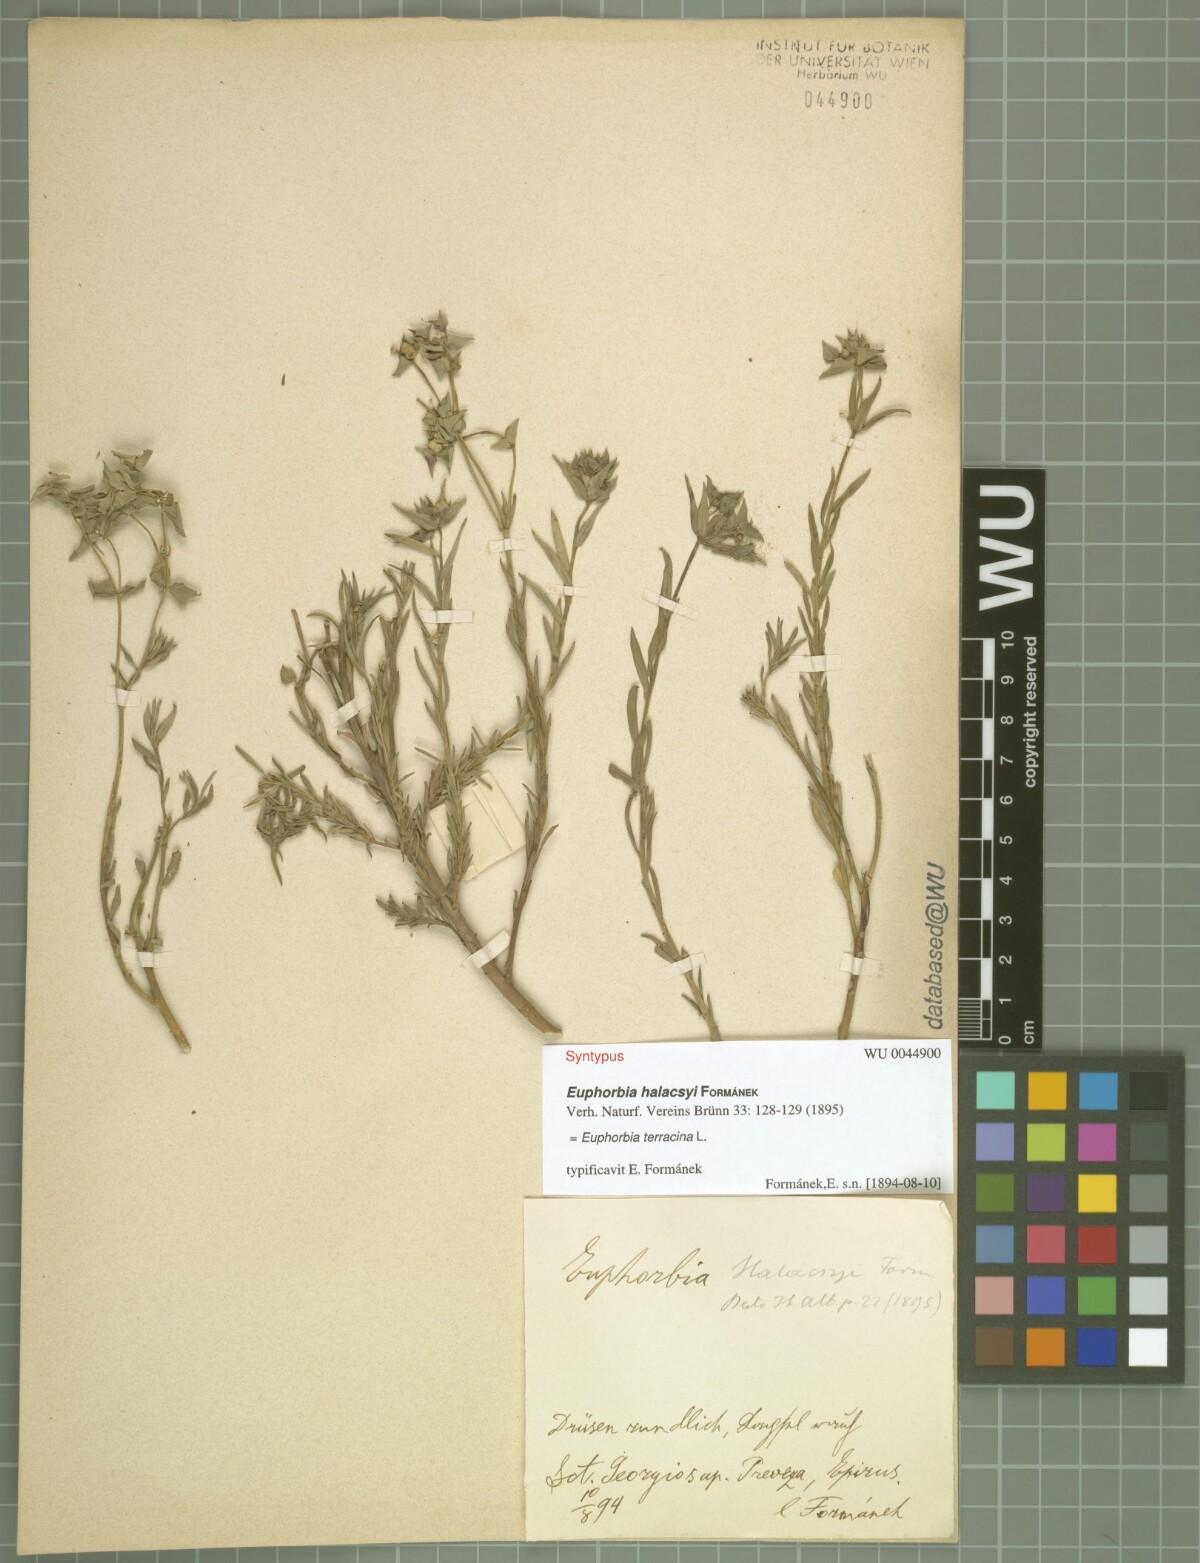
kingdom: Plantae
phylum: Tracheophyta
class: Magnoliopsida
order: Malpighiales
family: Euphorbiaceae
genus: Euphorbia
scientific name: Euphorbia terracina
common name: Geraldton carnation weed
